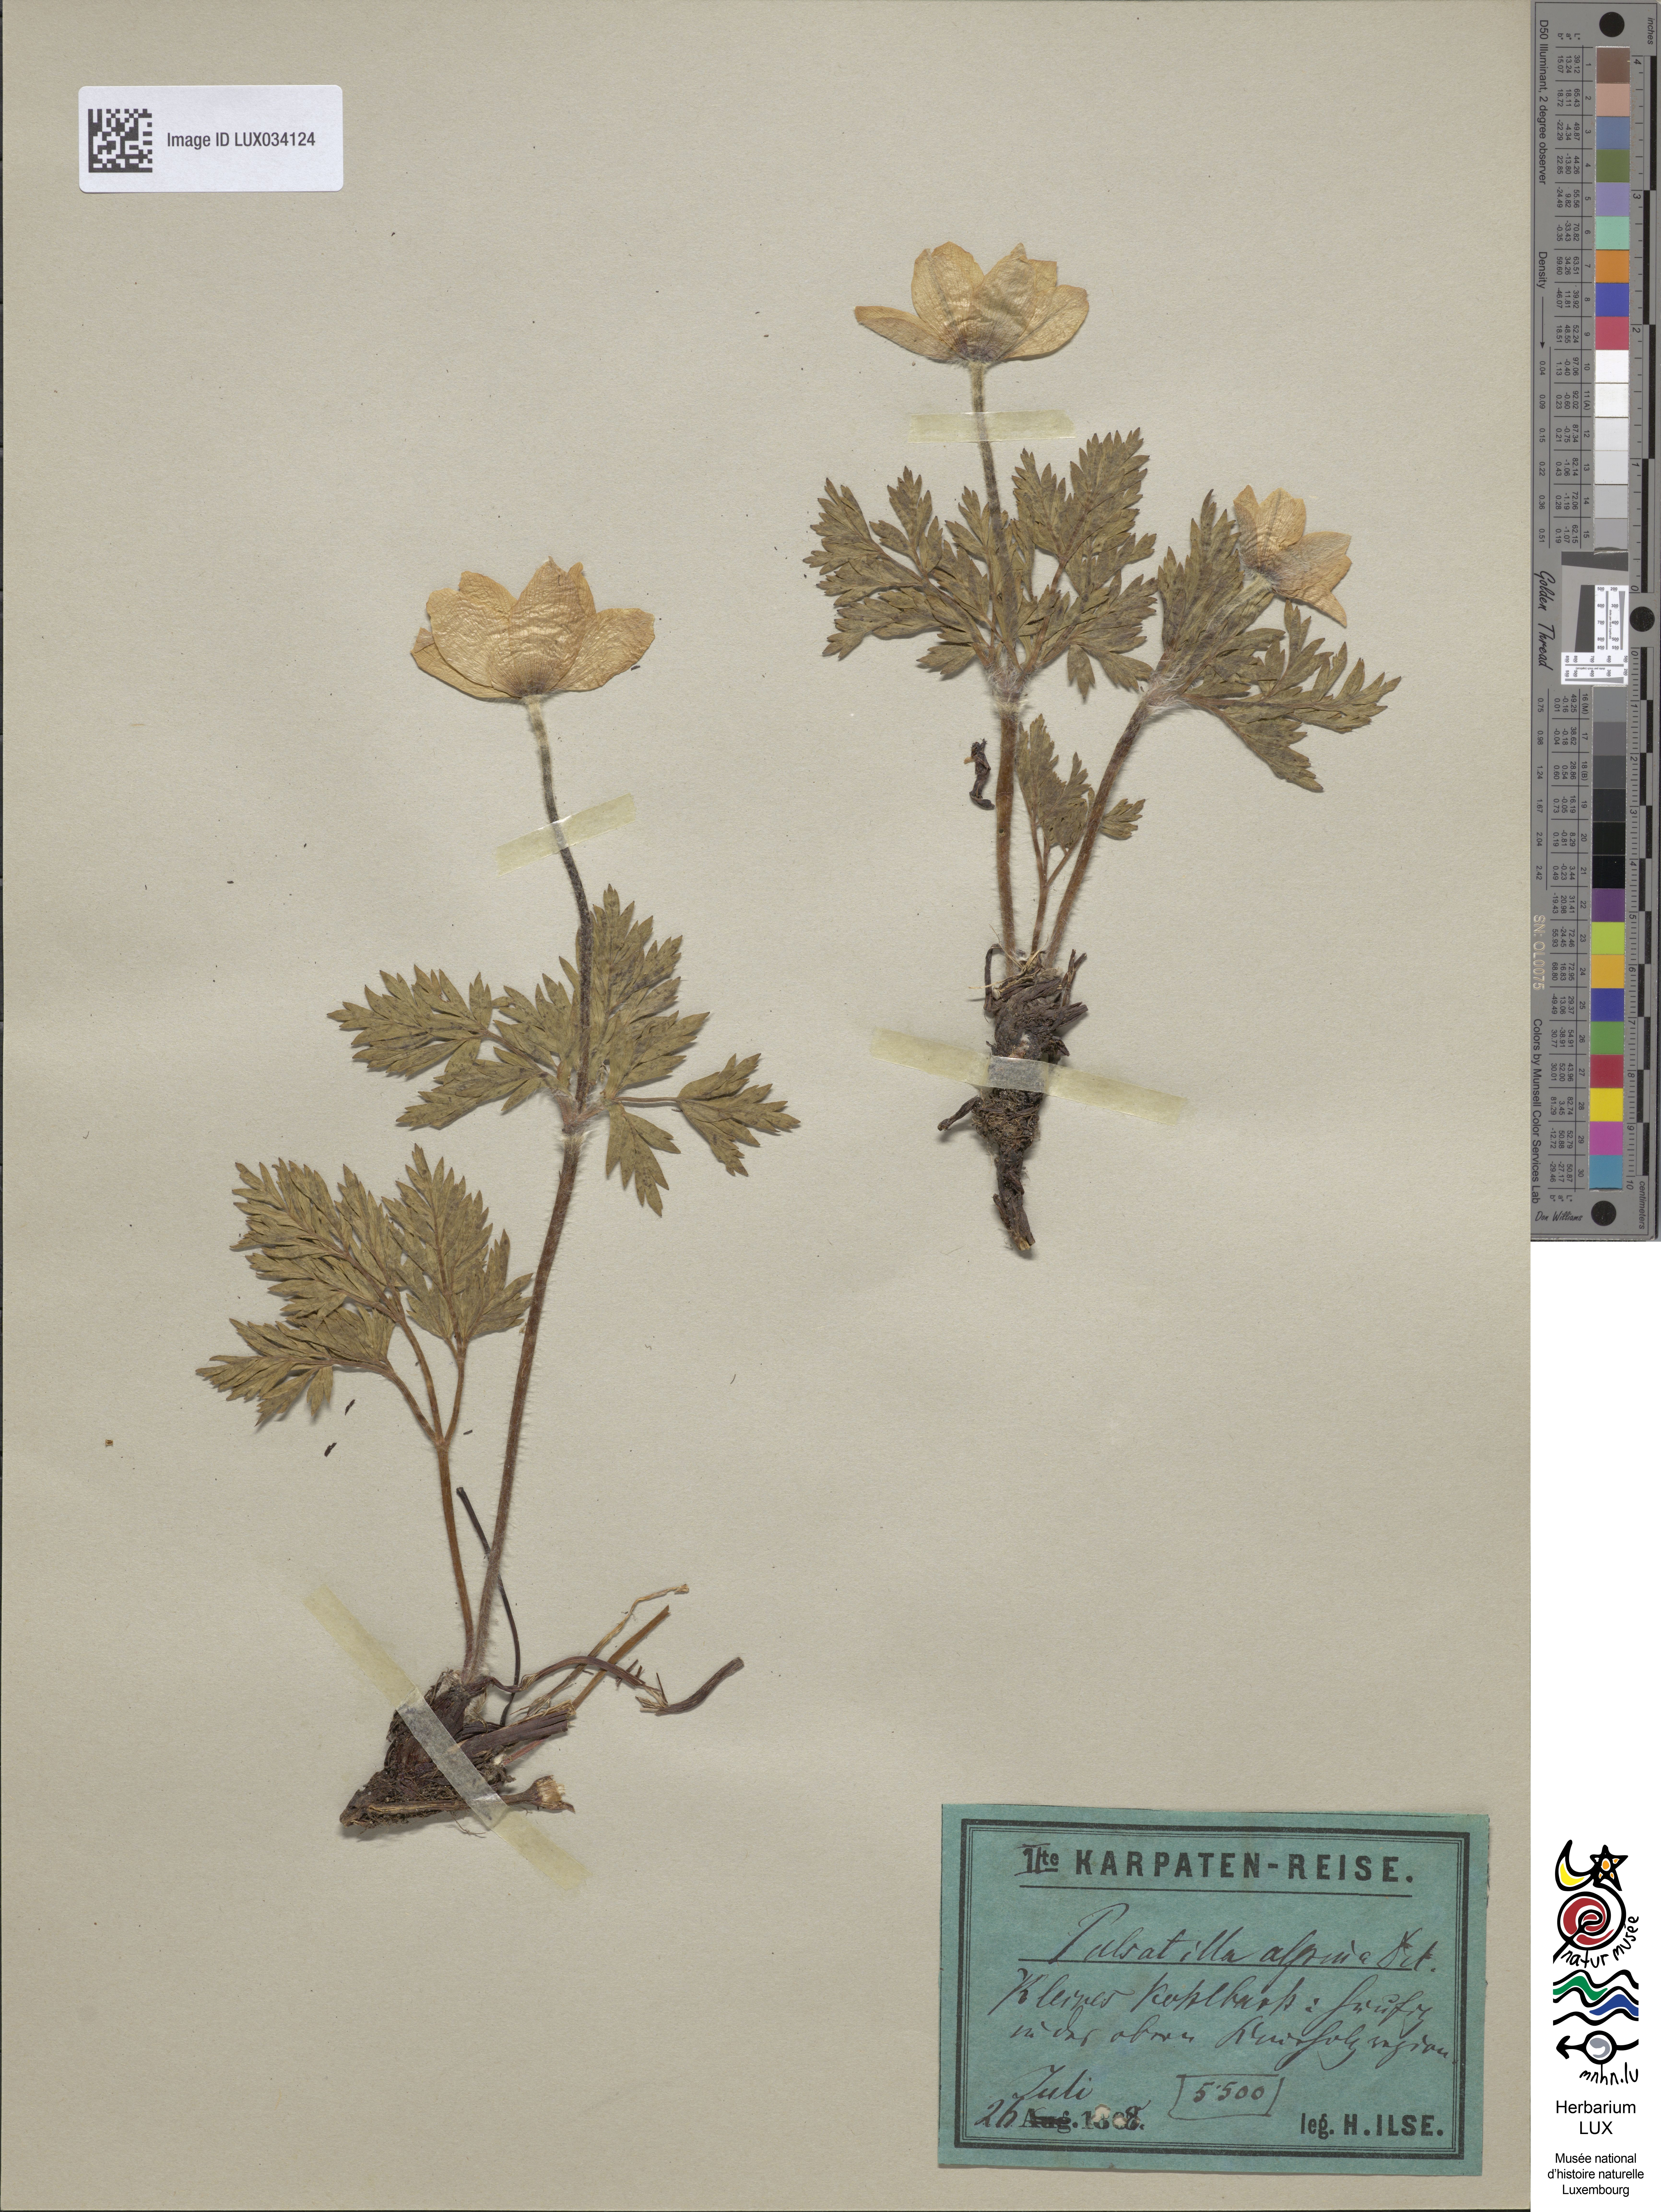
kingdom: Plantae
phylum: Tracheophyta
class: Magnoliopsida
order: Ranunculales
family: Ranunculaceae
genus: Pulsatilla
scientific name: Pulsatilla alpina
